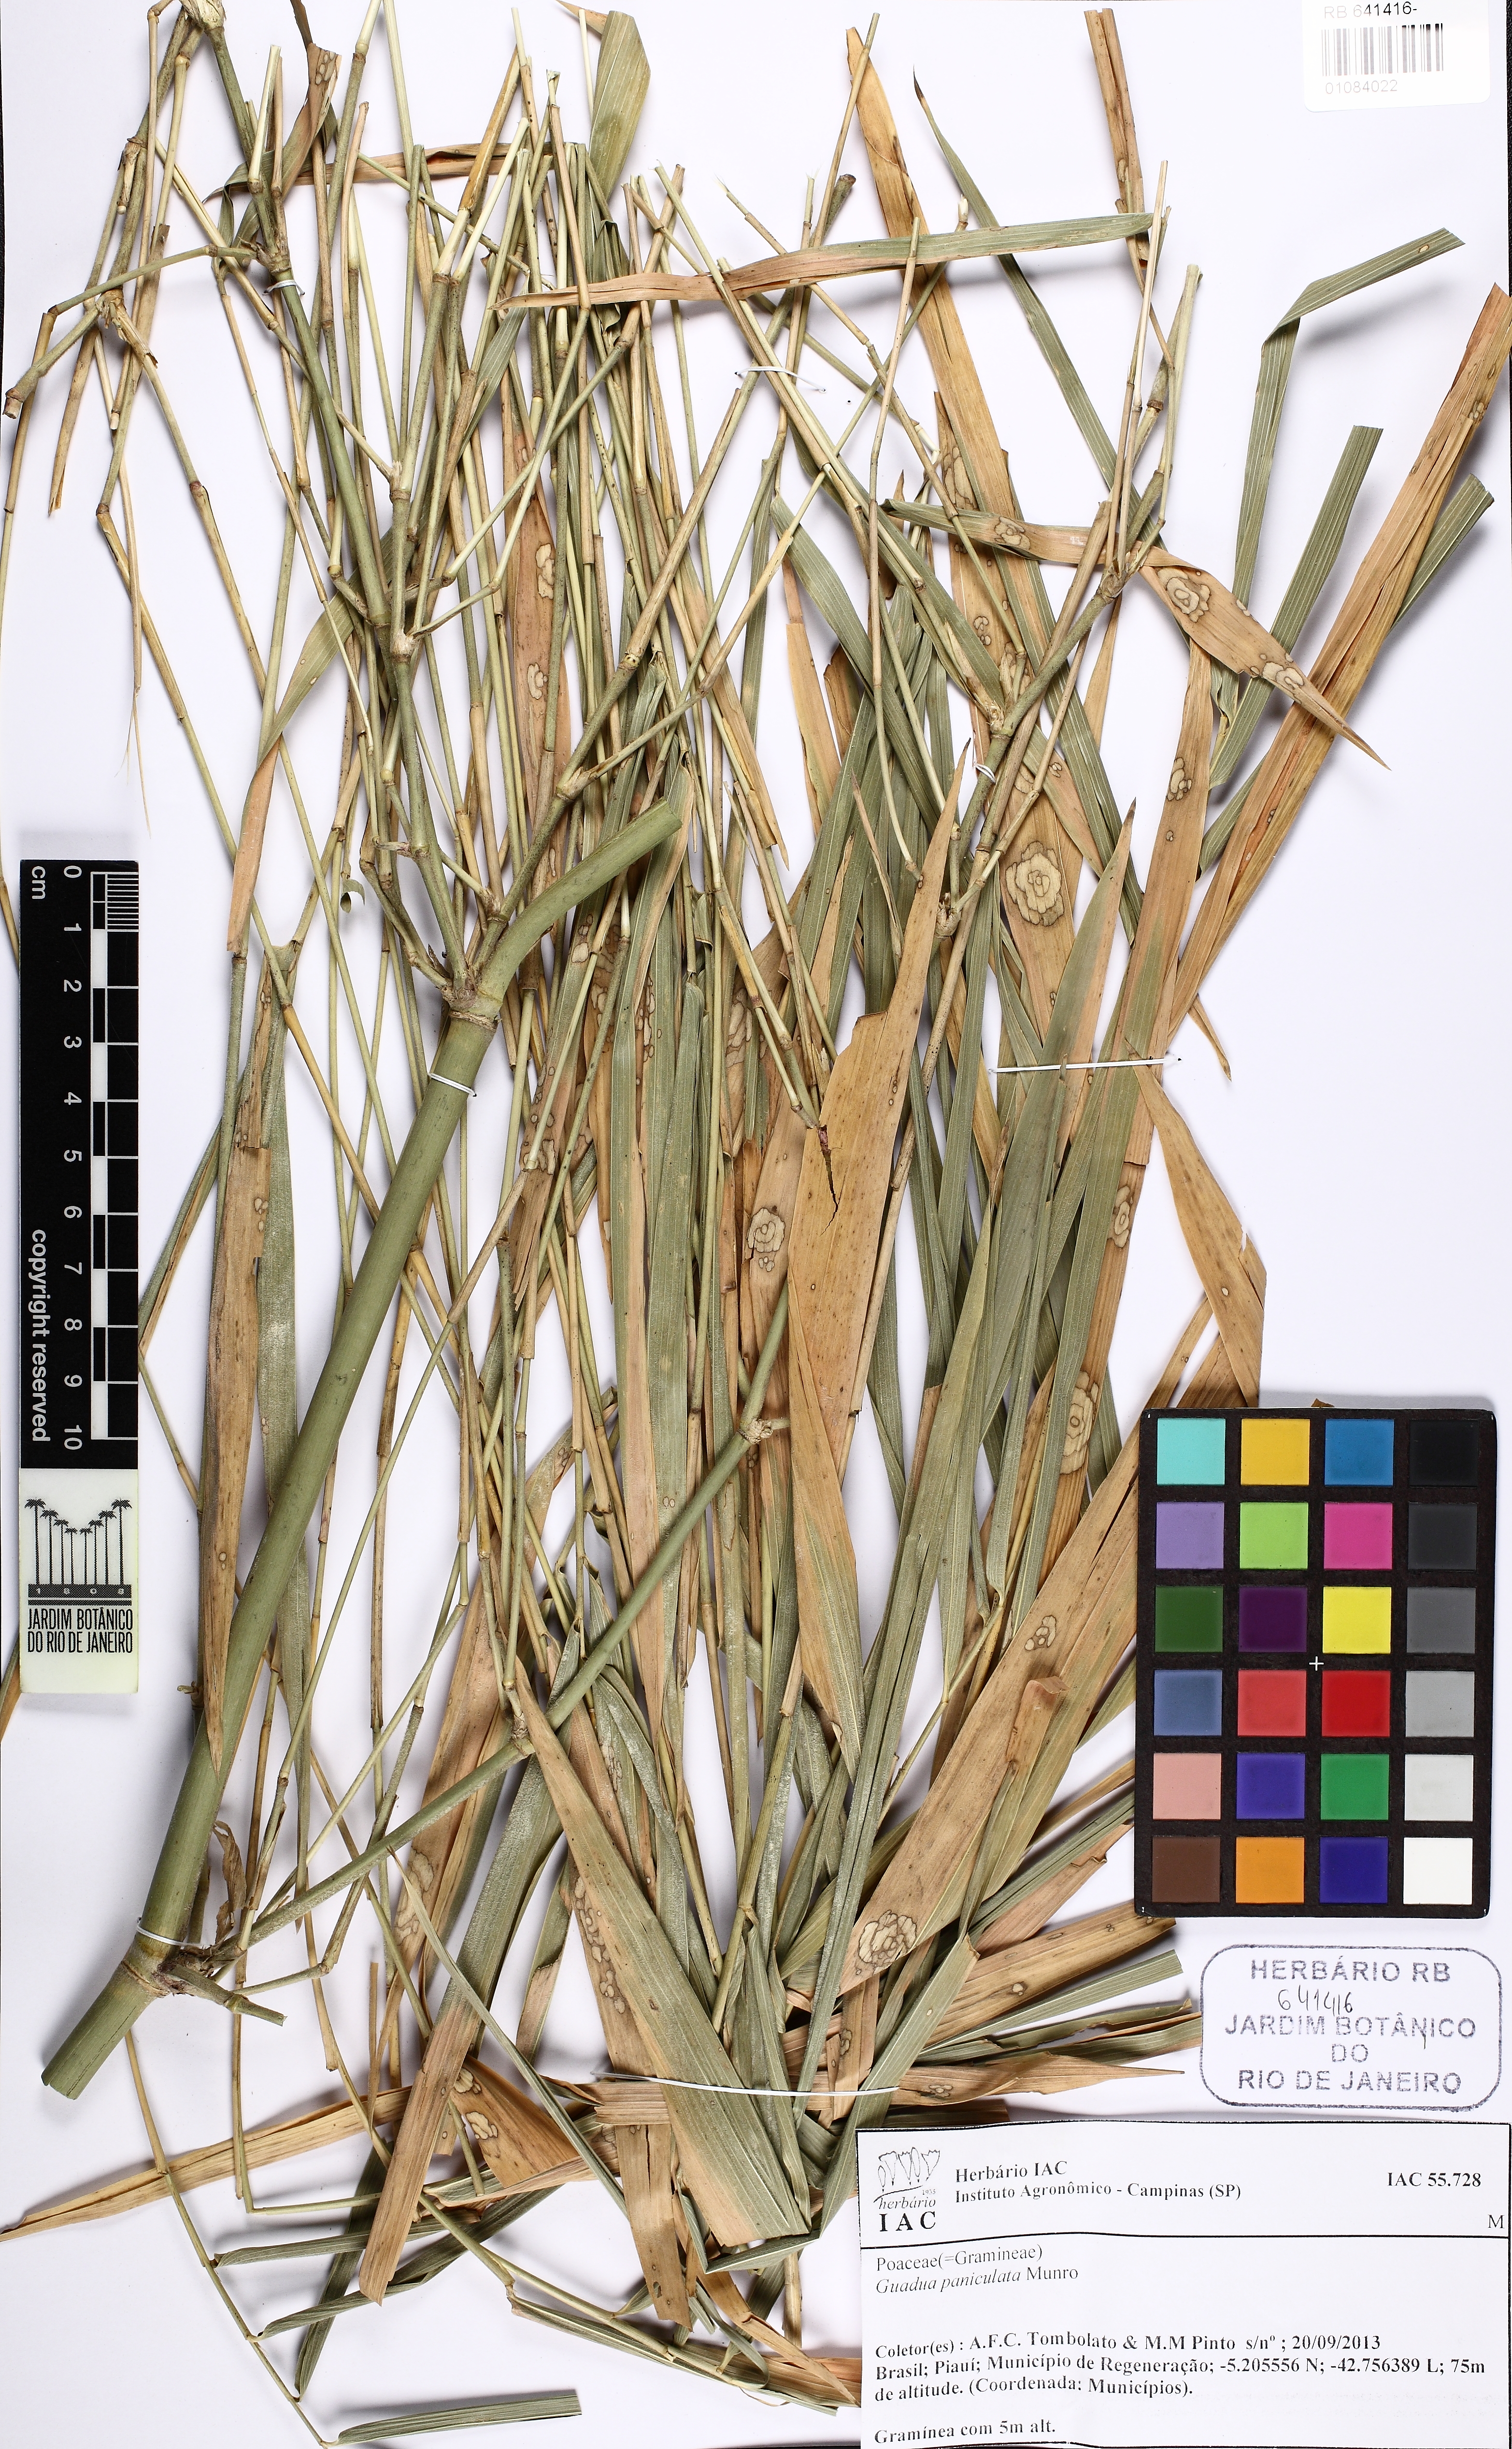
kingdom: Plantae
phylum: Tracheophyta
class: Liliopsida
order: Poales
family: Poaceae
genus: Guadua
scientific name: Guadua paniculata
